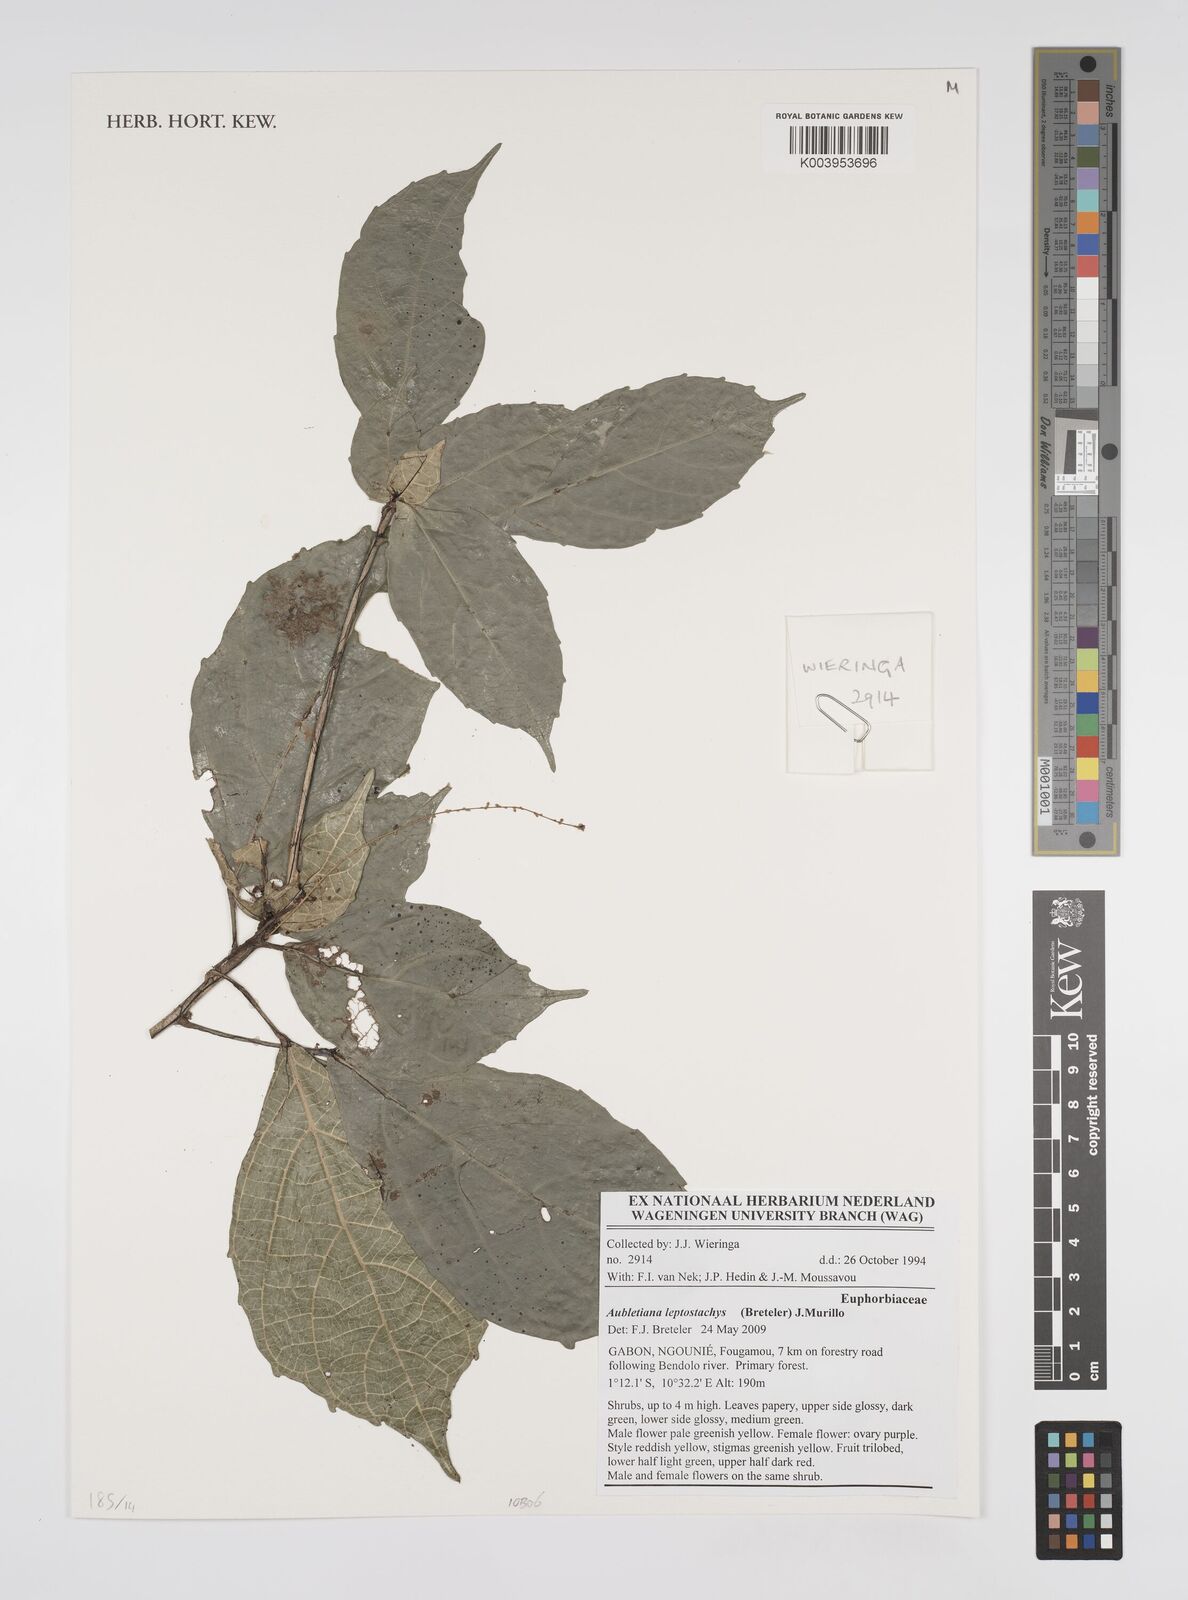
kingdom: Plantae
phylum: Tracheophyta
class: Magnoliopsida
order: Malpighiales
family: Euphorbiaceae
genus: Aubletiana
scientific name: Aubletiana leptostachys
